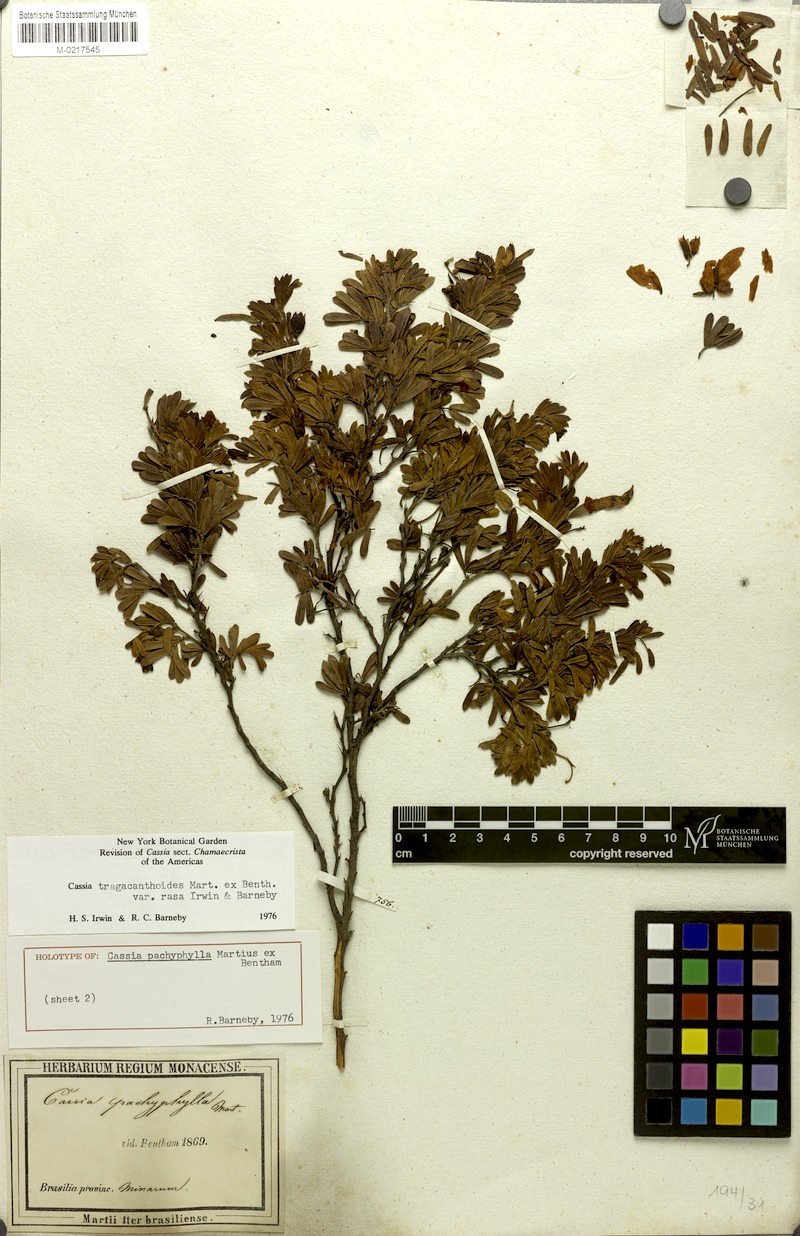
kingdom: Plantae
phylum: Tracheophyta
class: Magnoliopsida
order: Fabales
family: Fabaceae
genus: Chamaecrista
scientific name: Chamaecrista tragacanthoides
